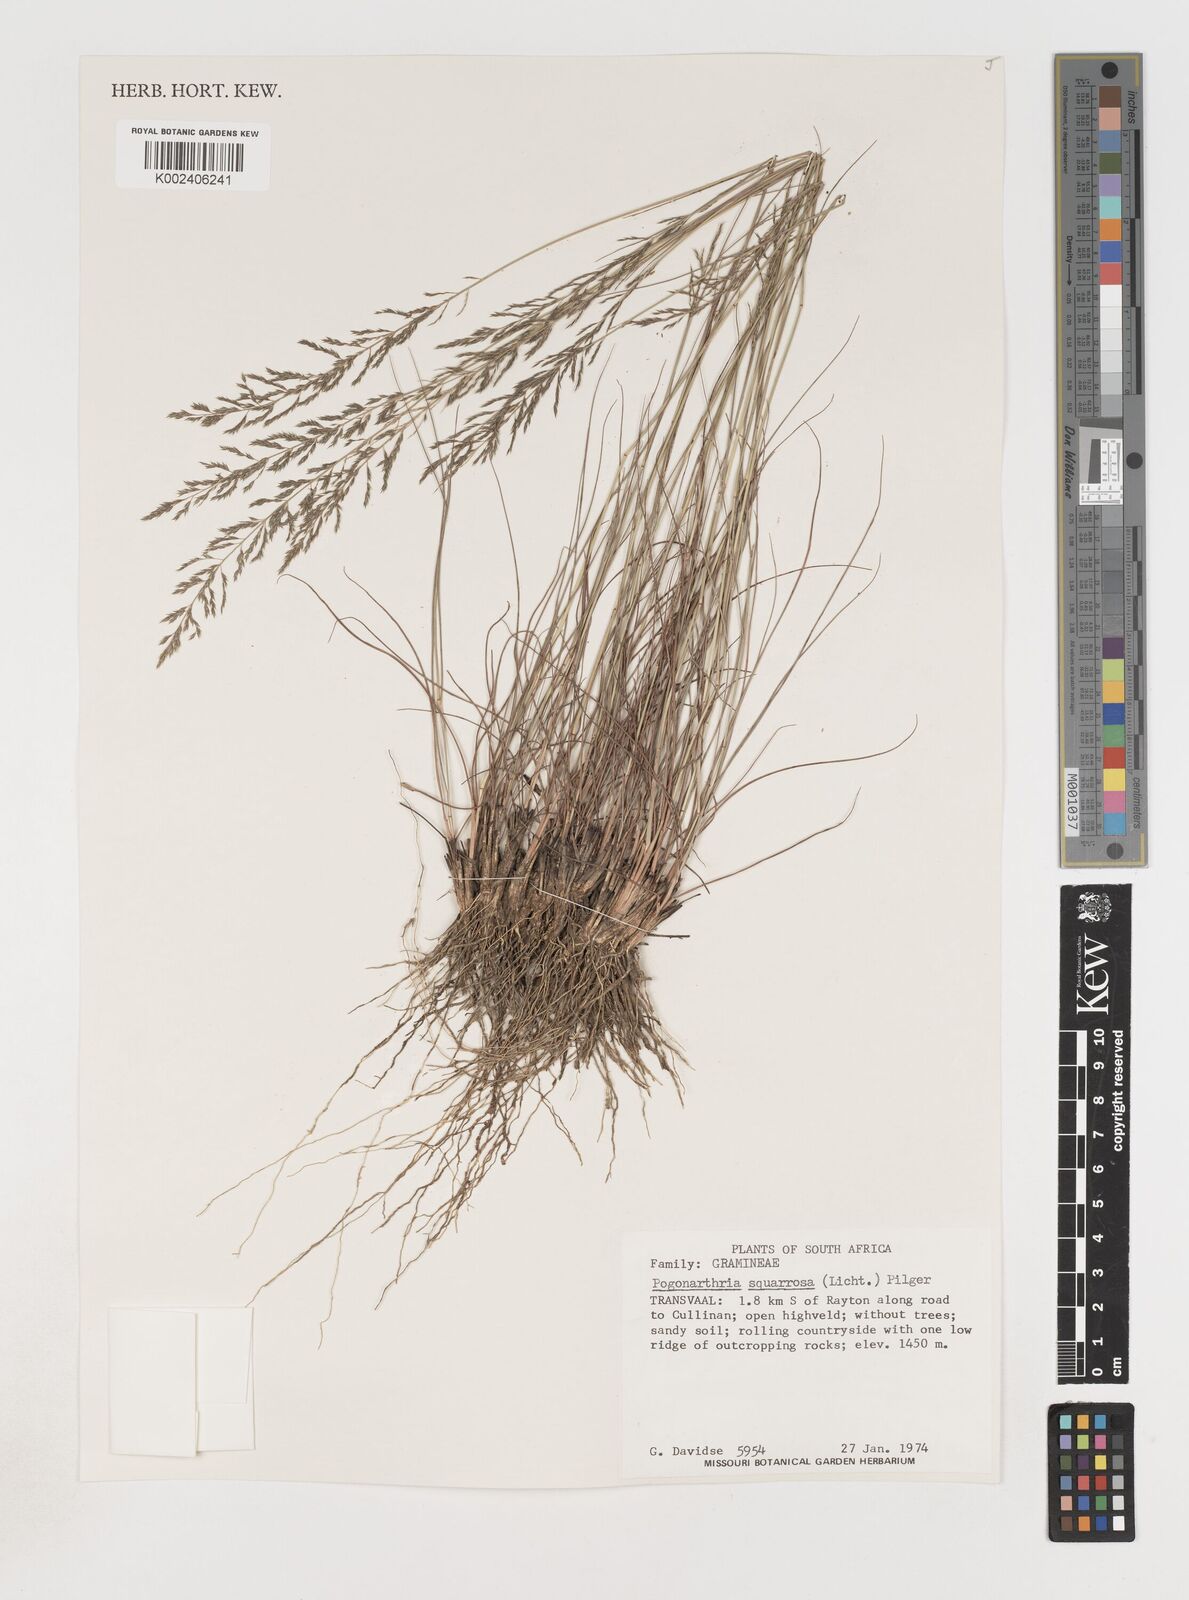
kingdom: Plantae
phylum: Tracheophyta
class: Liliopsida
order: Poales
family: Poaceae
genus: Pogonarthria
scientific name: Pogonarthria squarrosa
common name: Grass
